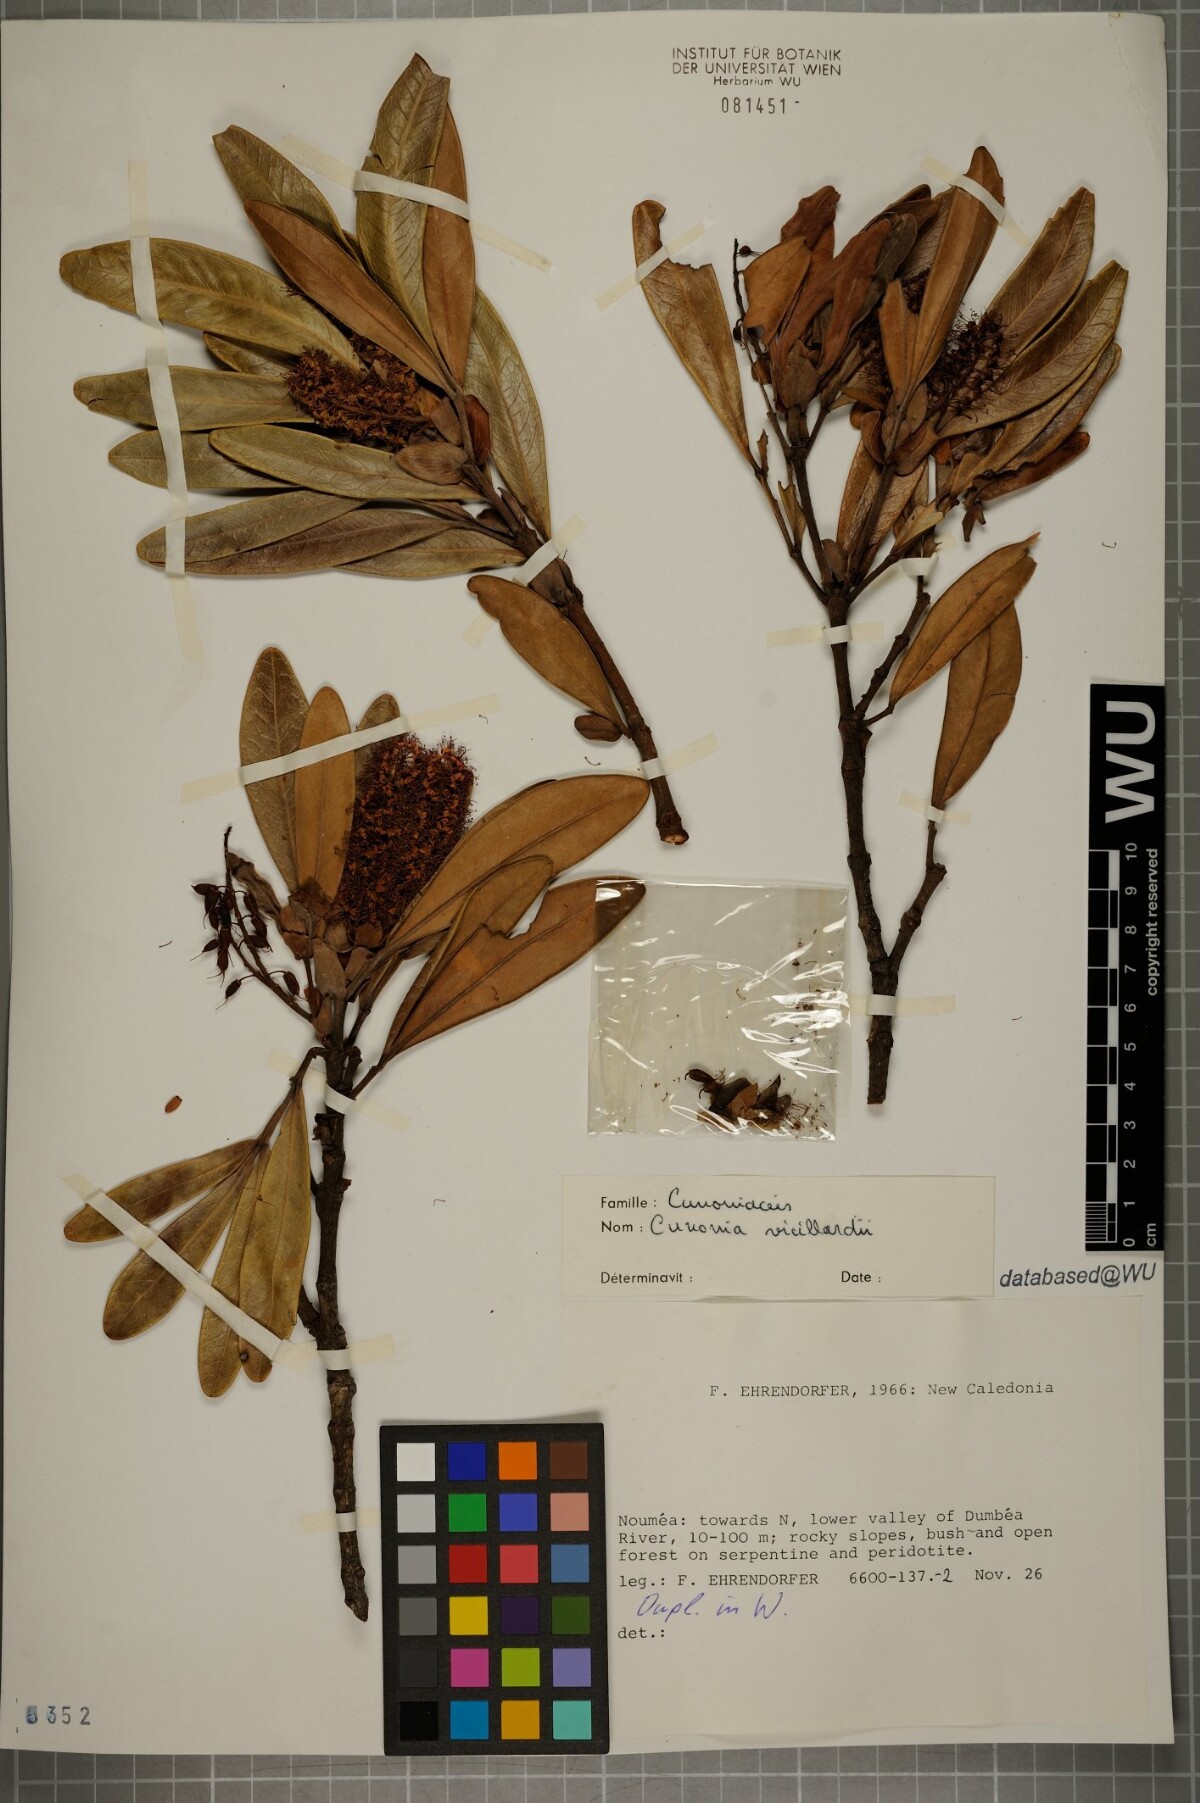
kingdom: Plantae
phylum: Tracheophyta
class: Magnoliopsida
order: Oxalidales
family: Cunoniaceae
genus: Cunonia
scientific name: Cunonia vieillardii
